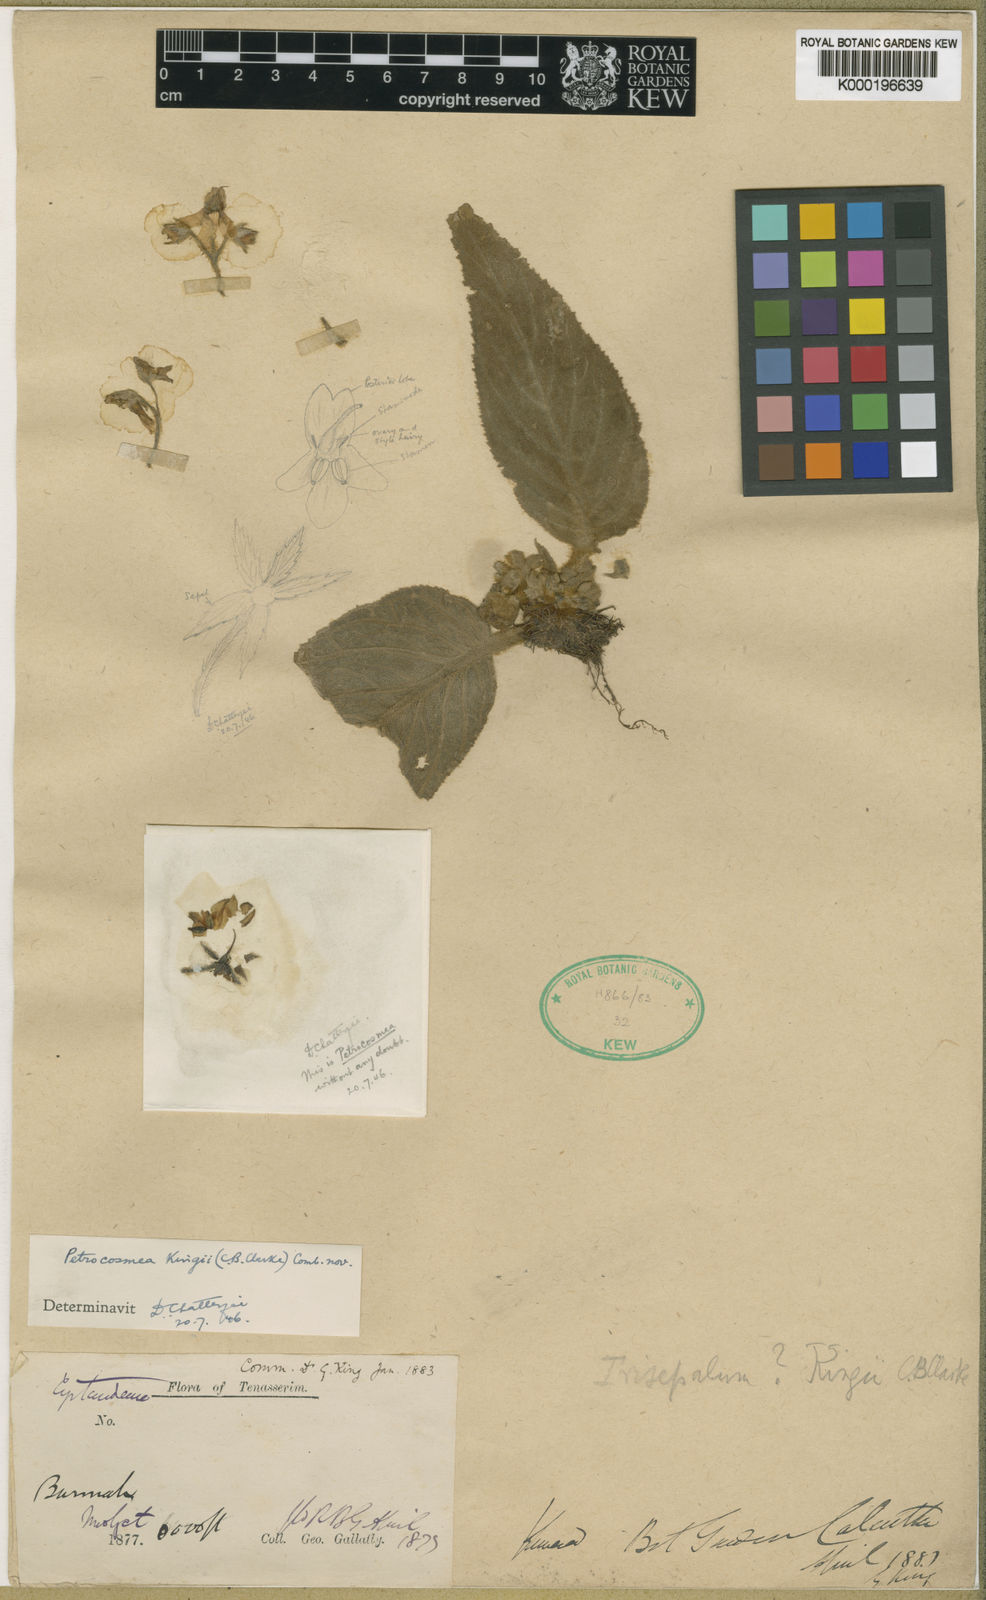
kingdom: Plantae
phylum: Tracheophyta
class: Magnoliopsida
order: Lamiales
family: Gesneriaceae
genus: Petrocosmea
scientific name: Petrocosmea kingii
